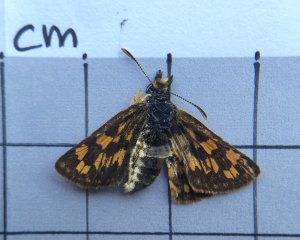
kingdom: Animalia
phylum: Arthropoda
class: Insecta
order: Lepidoptera
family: Hesperiidae
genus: Carterocephalus
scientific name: Carterocephalus palaemon
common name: Chequered Skipper
